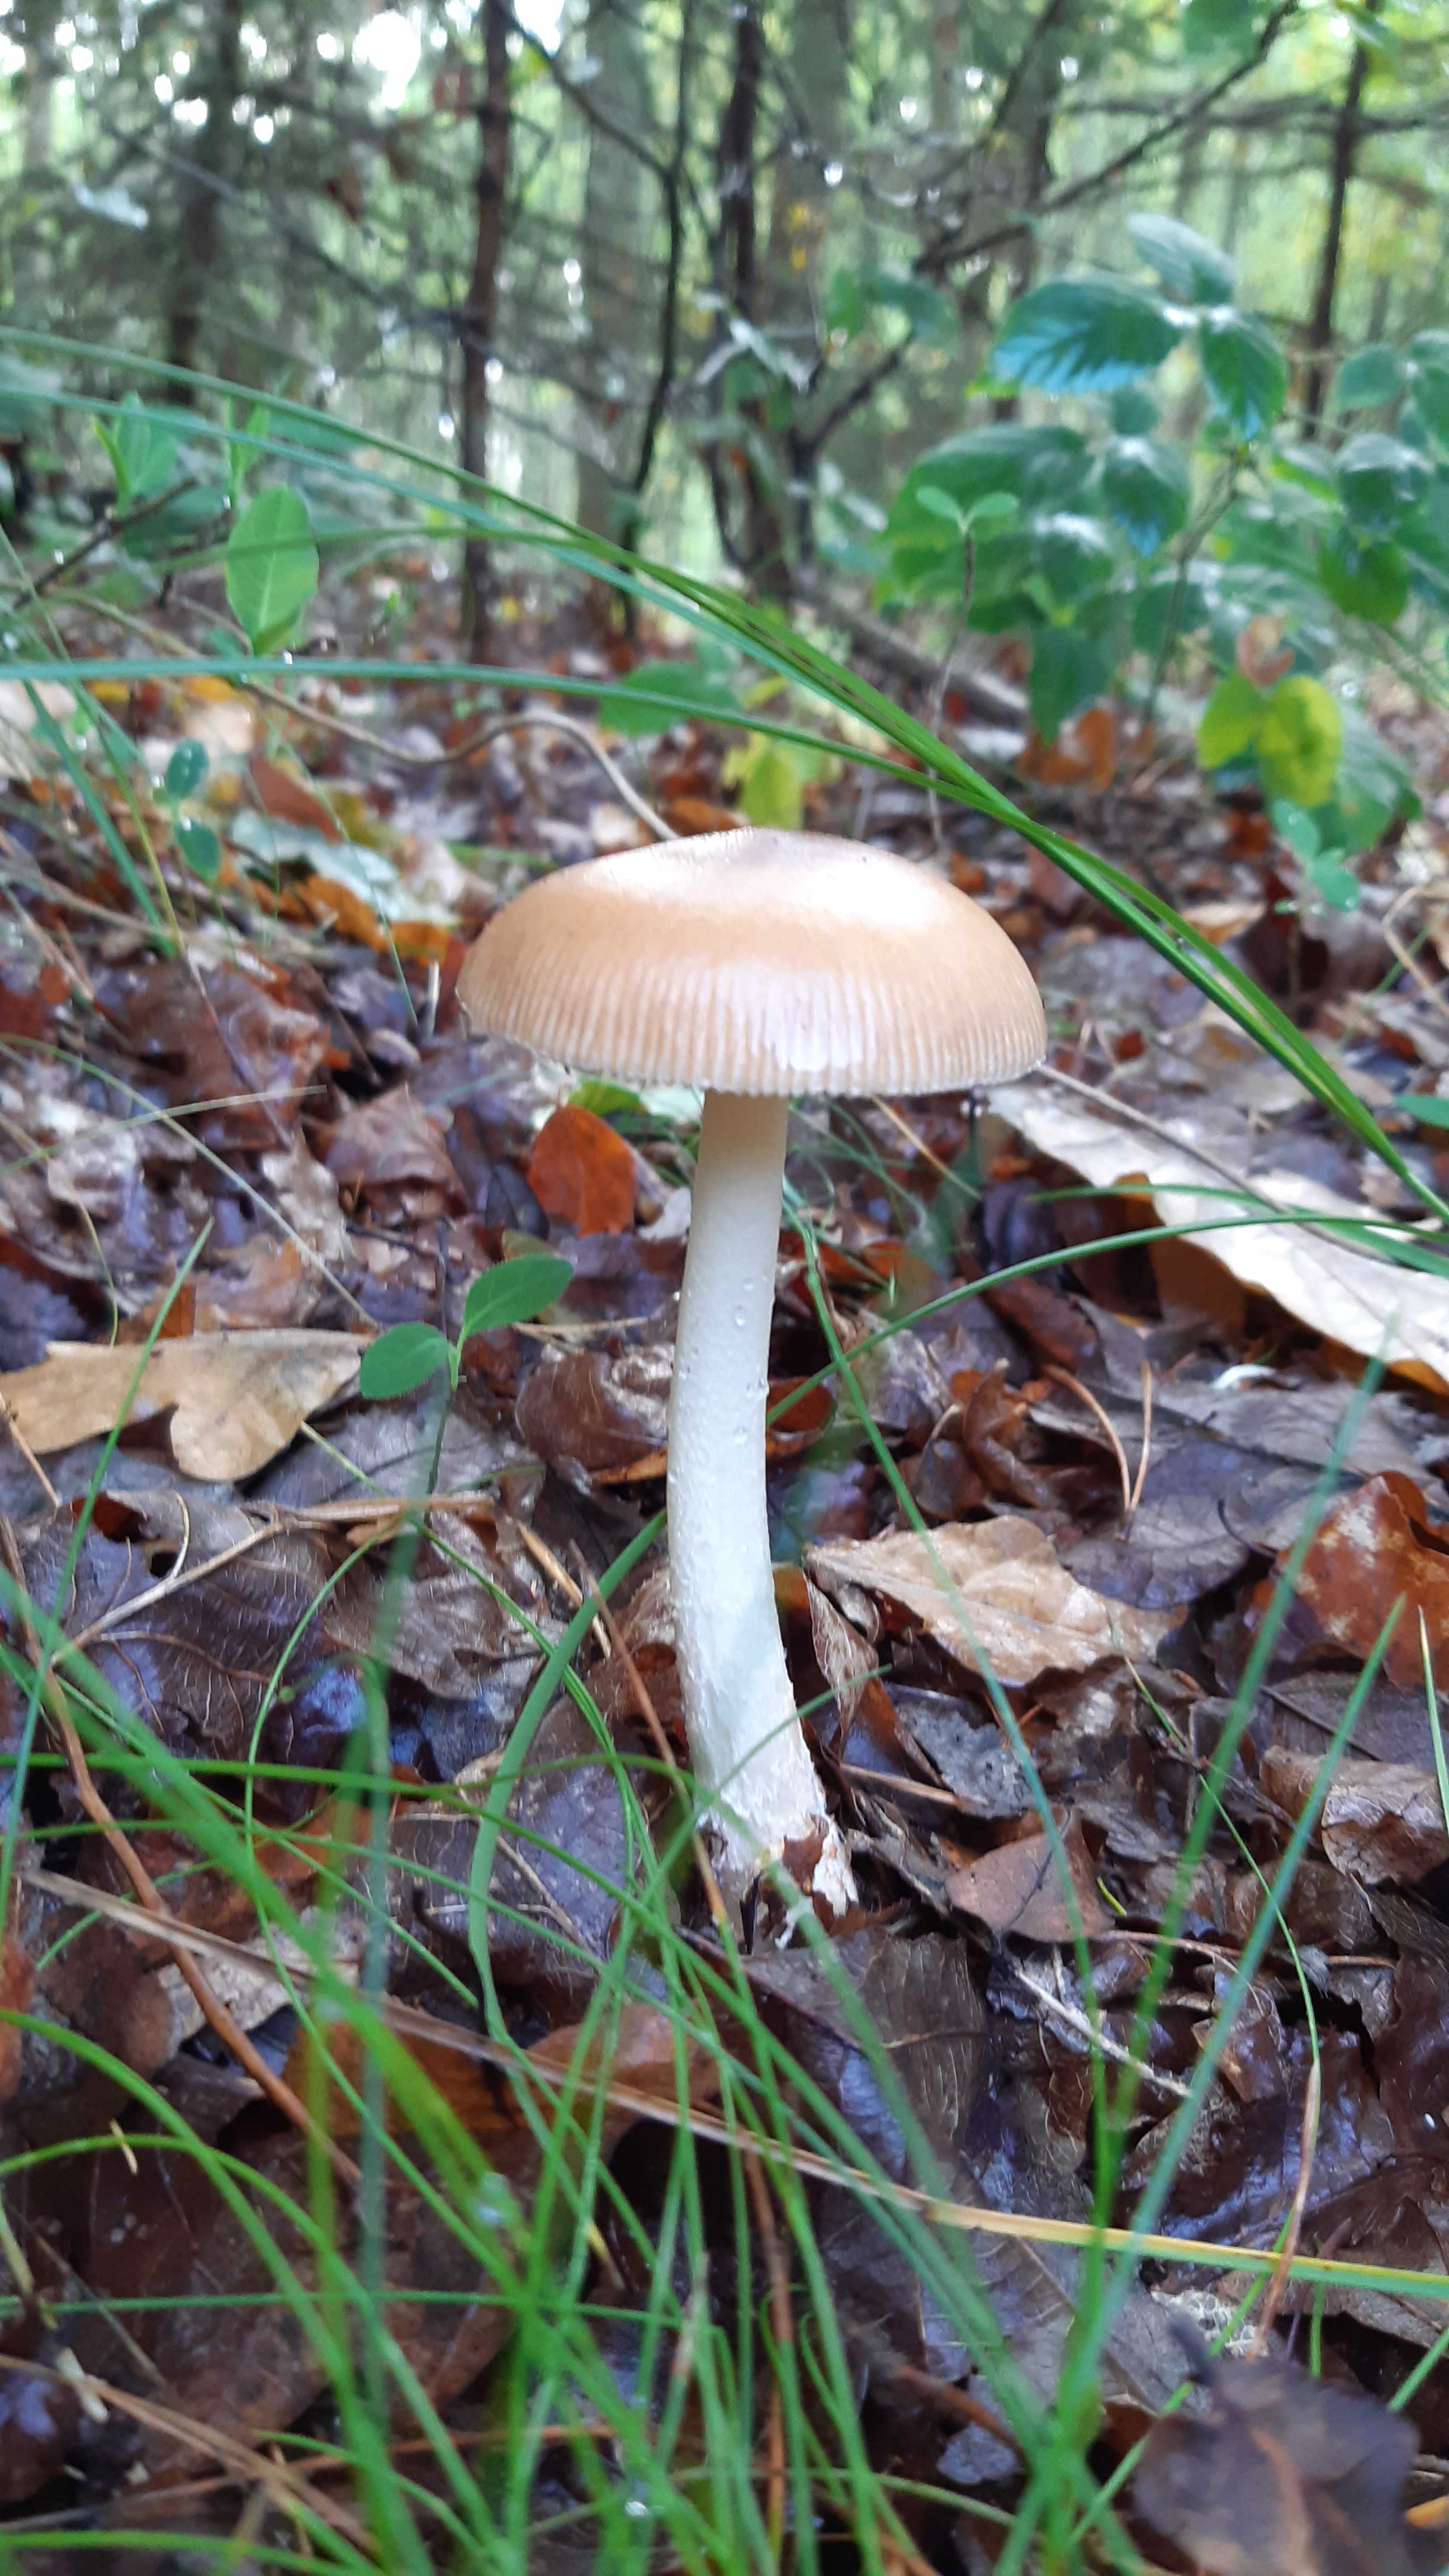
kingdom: Fungi
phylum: Basidiomycota
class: Agaricomycetes
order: Agaricales
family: Amanitaceae
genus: Amanita
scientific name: Amanita fulva
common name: brun kam-fluesvamp
